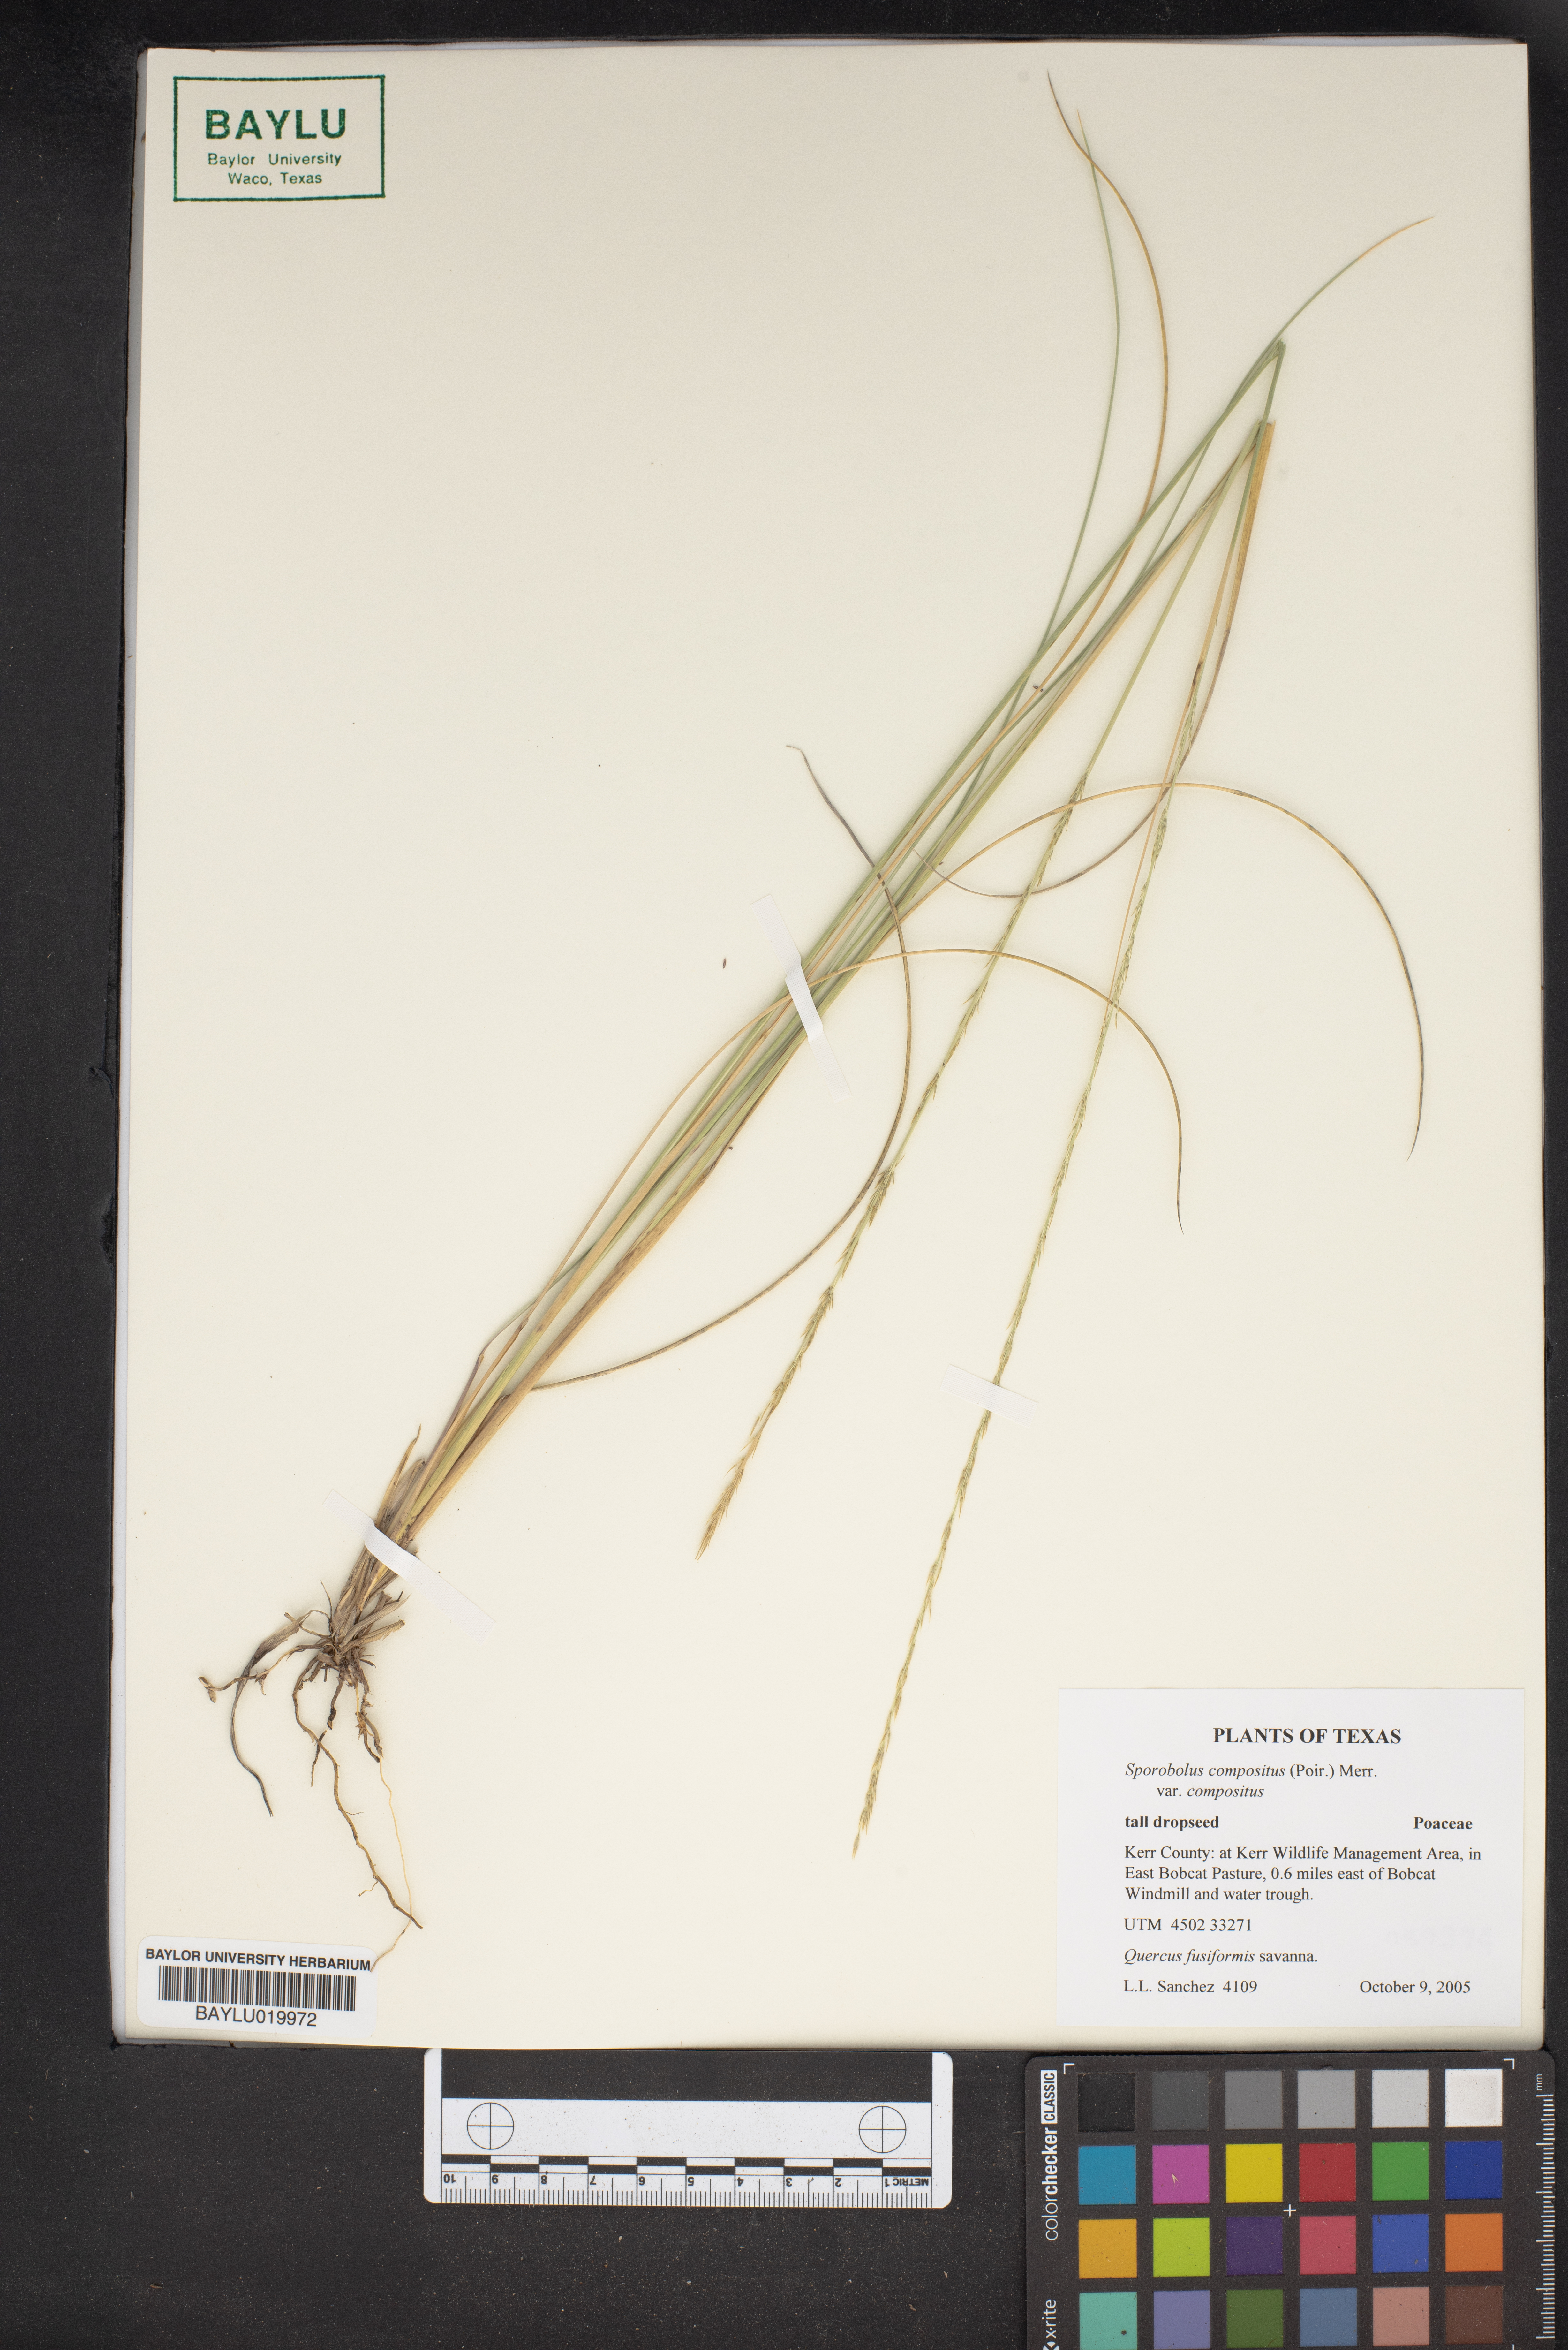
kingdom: Plantae
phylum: Tracheophyta
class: Liliopsida
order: Poales
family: Poaceae
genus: Sporobolus
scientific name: Sporobolus compositus
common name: Rough dropseed
